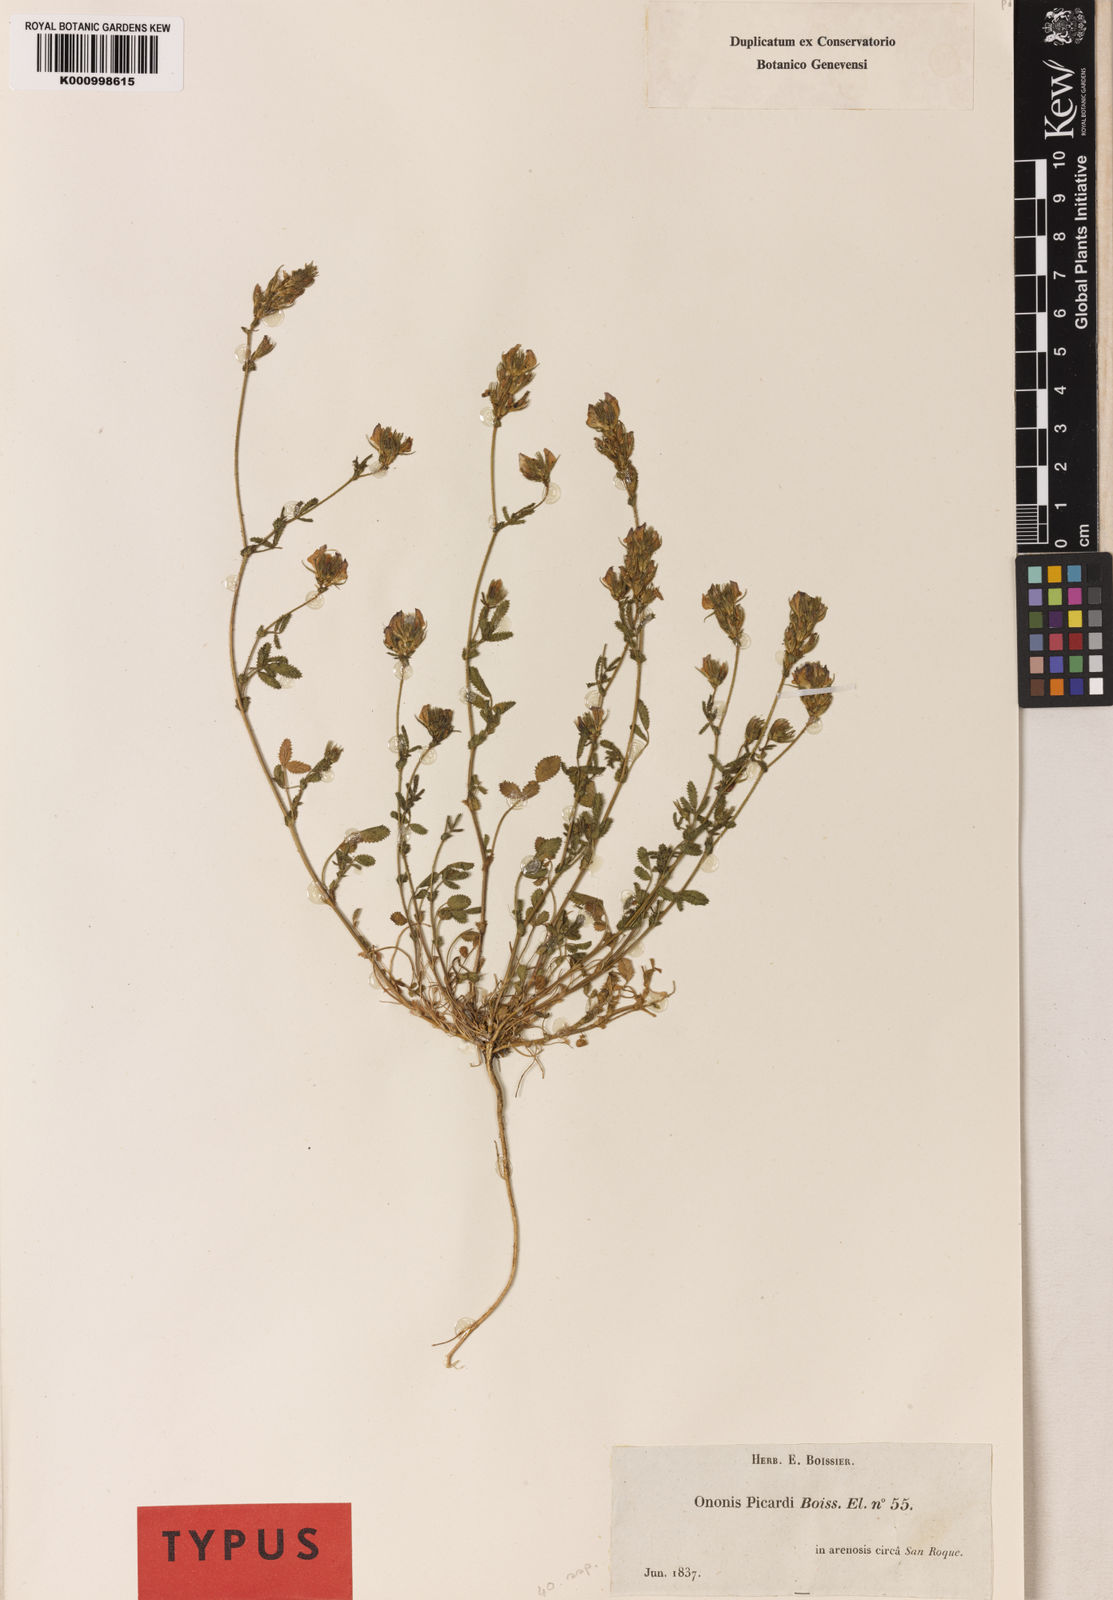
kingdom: Plantae
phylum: Tracheophyta
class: Magnoliopsida
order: Fabales
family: Fabaceae
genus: Ononis
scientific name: Ononis baetica
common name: Andalucian restharrow
